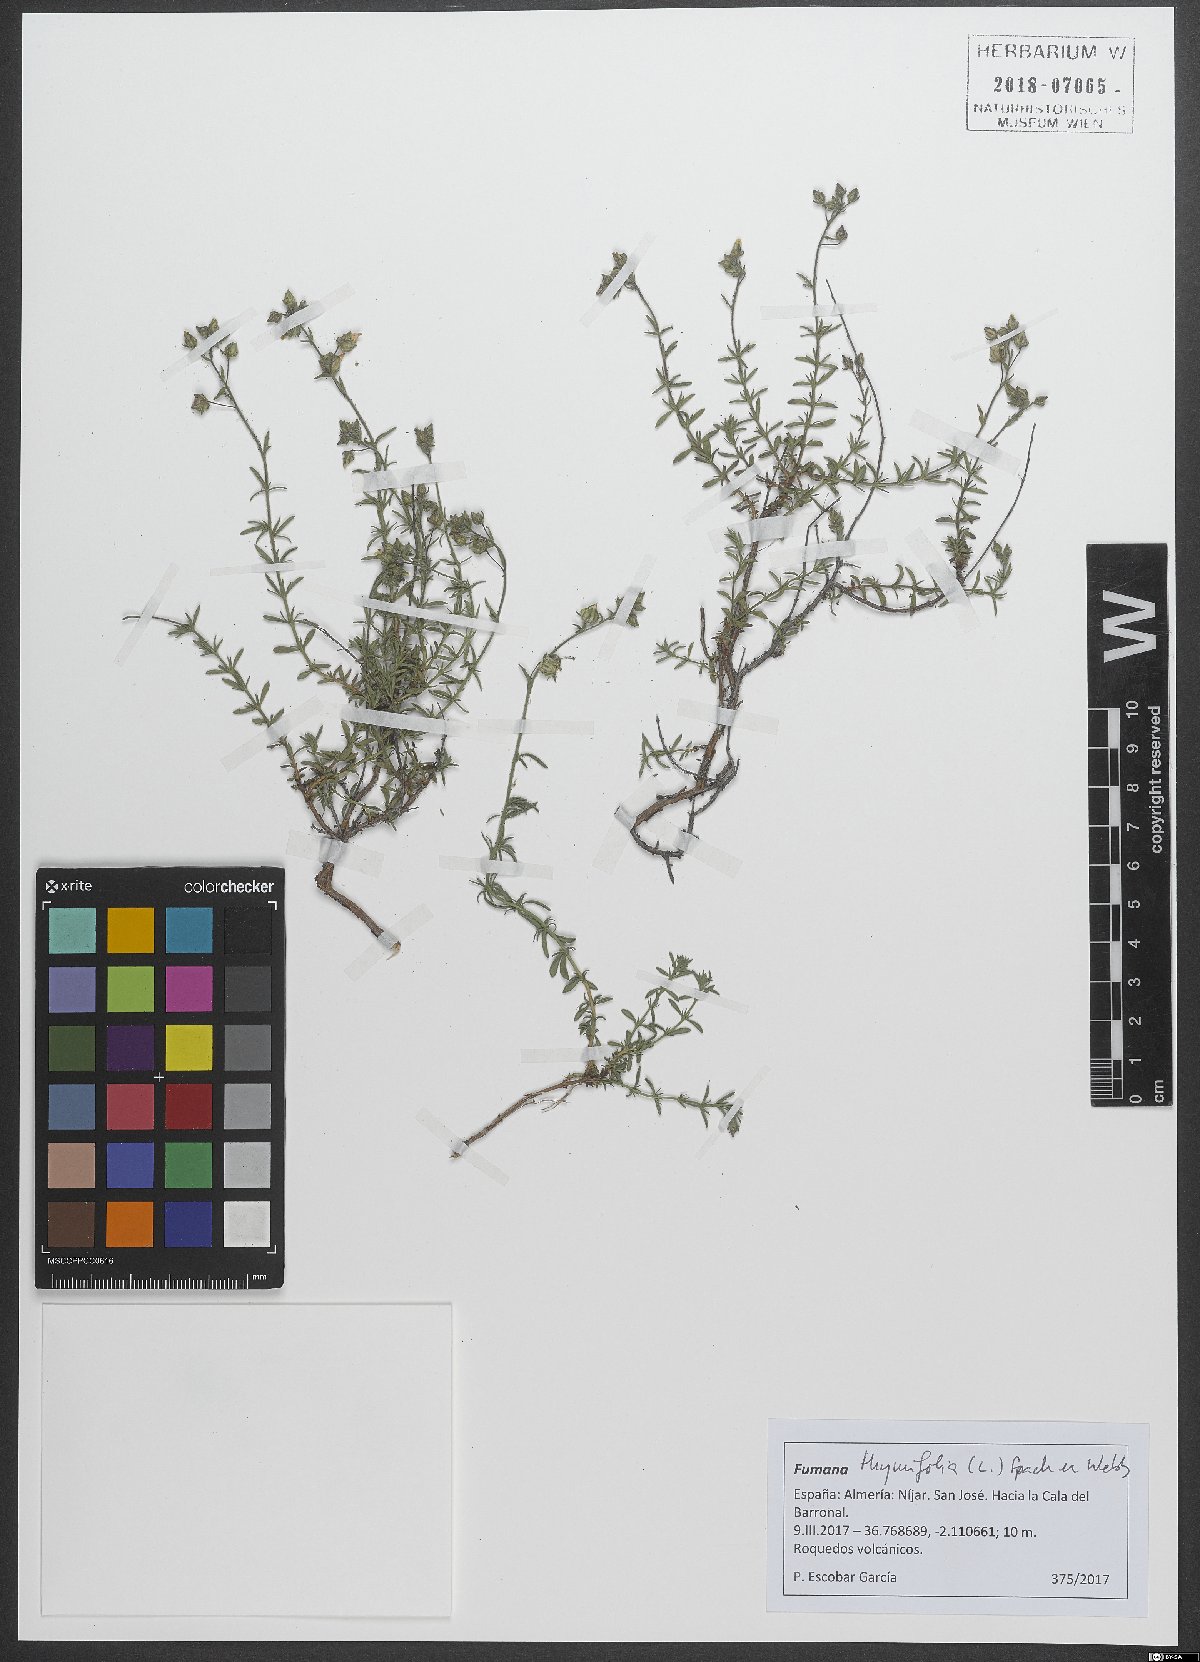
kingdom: Plantae
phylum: Tracheophyta
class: Magnoliopsida
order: Malvales
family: Cistaceae
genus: Fumana
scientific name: Fumana thymifolia
